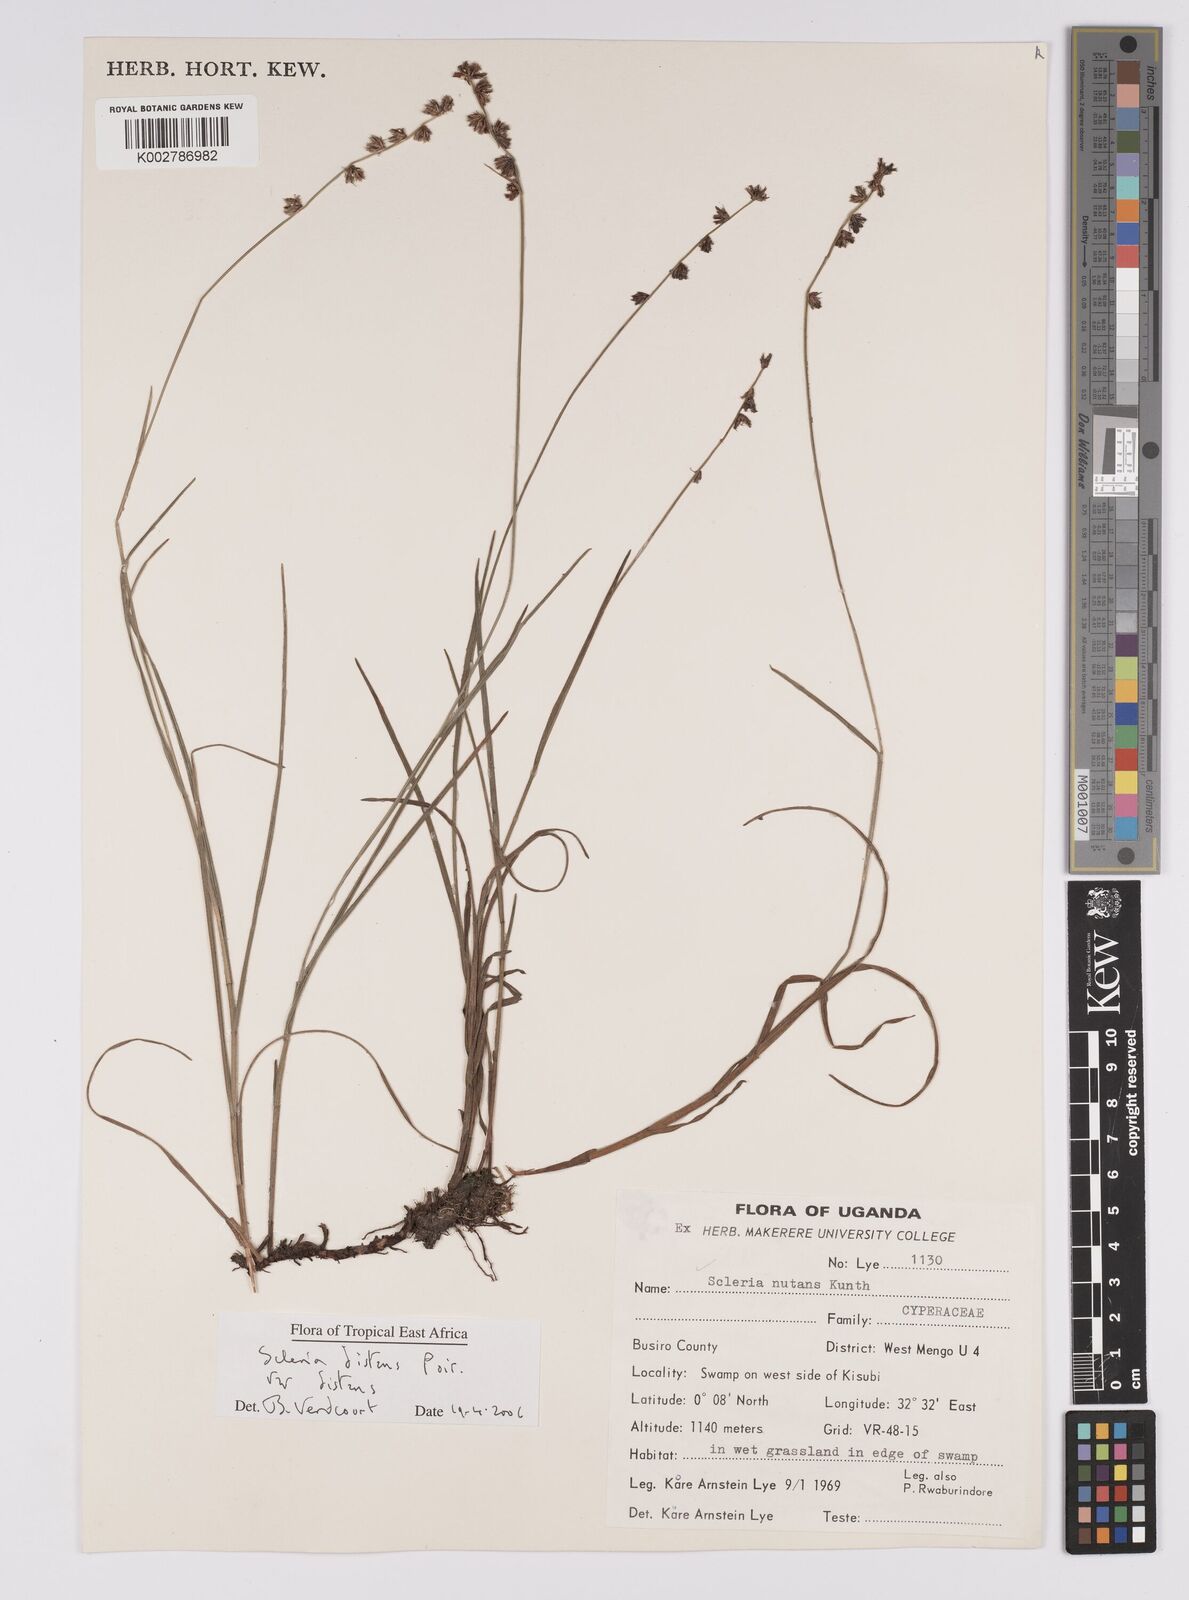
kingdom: Plantae
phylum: Tracheophyta
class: Liliopsida
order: Poales
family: Cyperaceae
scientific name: Cyperaceae
